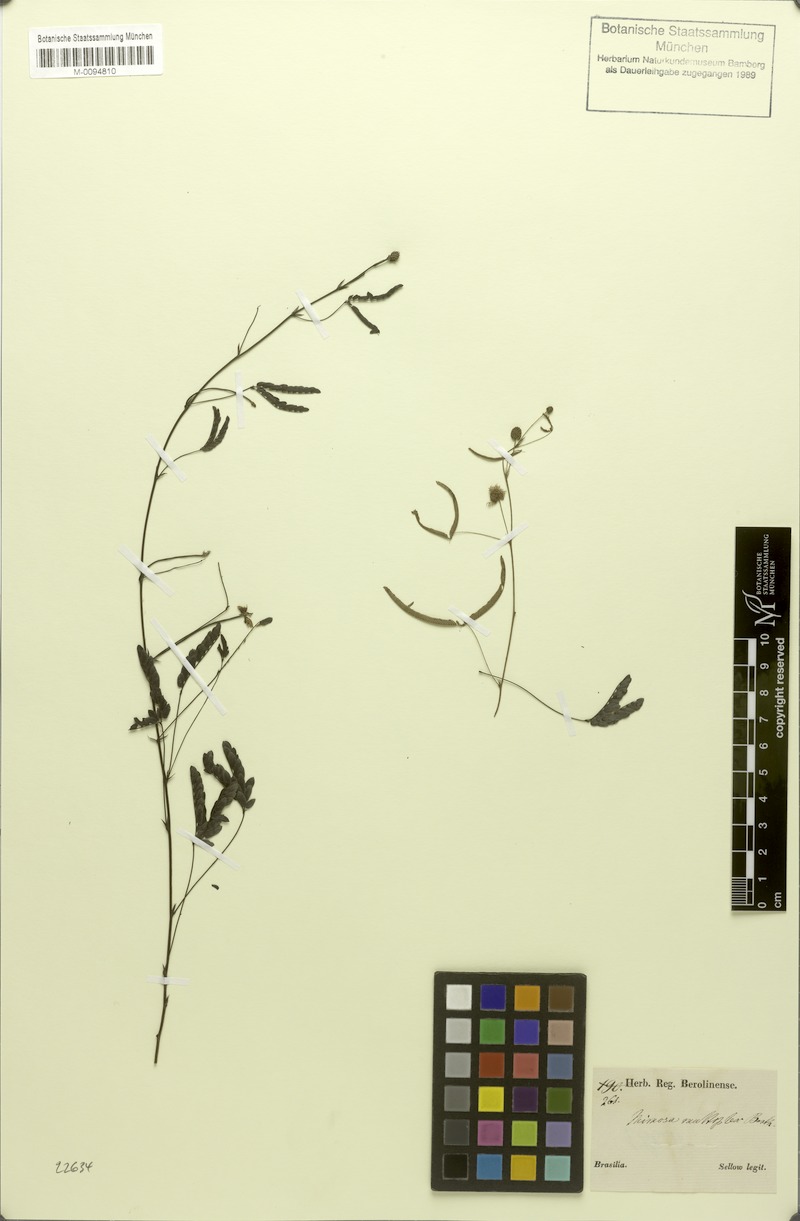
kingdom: Plantae
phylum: Tracheophyta
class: Magnoliopsida
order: Fabales
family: Fabaceae
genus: Mimosa
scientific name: Mimosa multiplex
